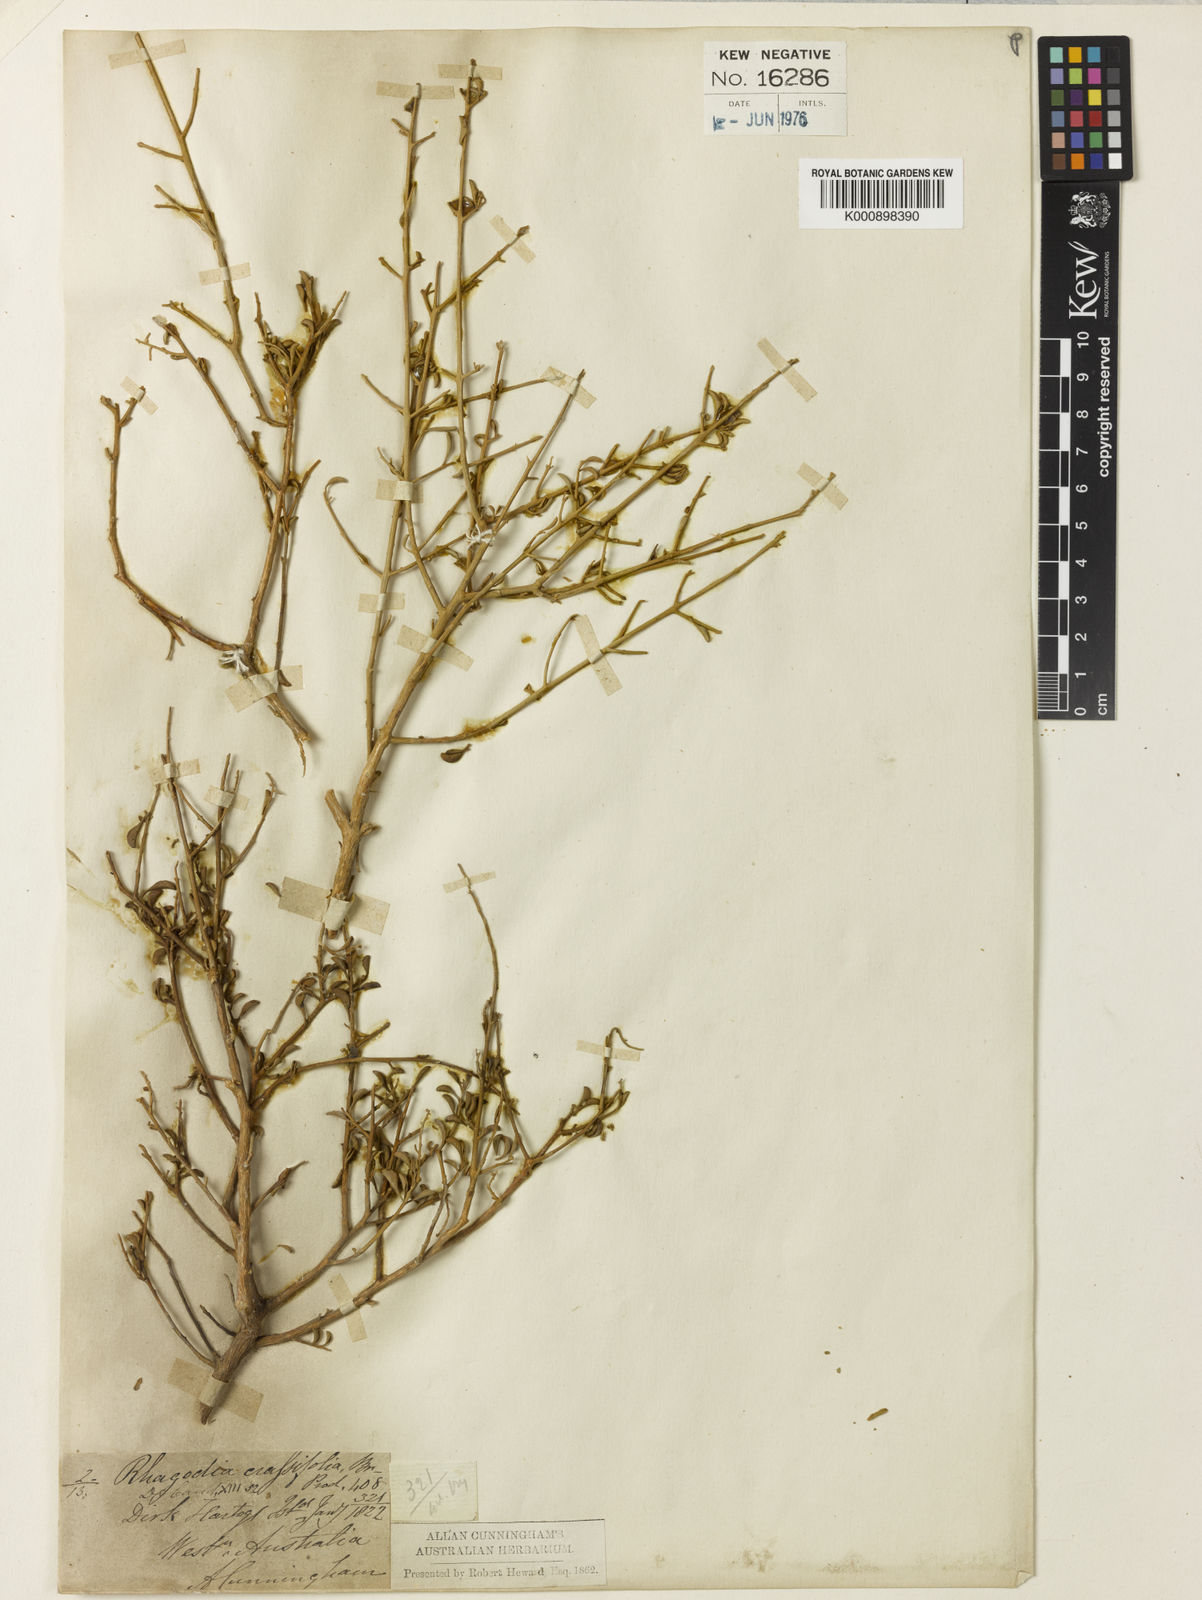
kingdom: Plantae
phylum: Tracheophyta
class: Magnoliopsida
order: Caryophyllales
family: Amaranthaceae
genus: Chenopodium
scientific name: Chenopodium benthamii
